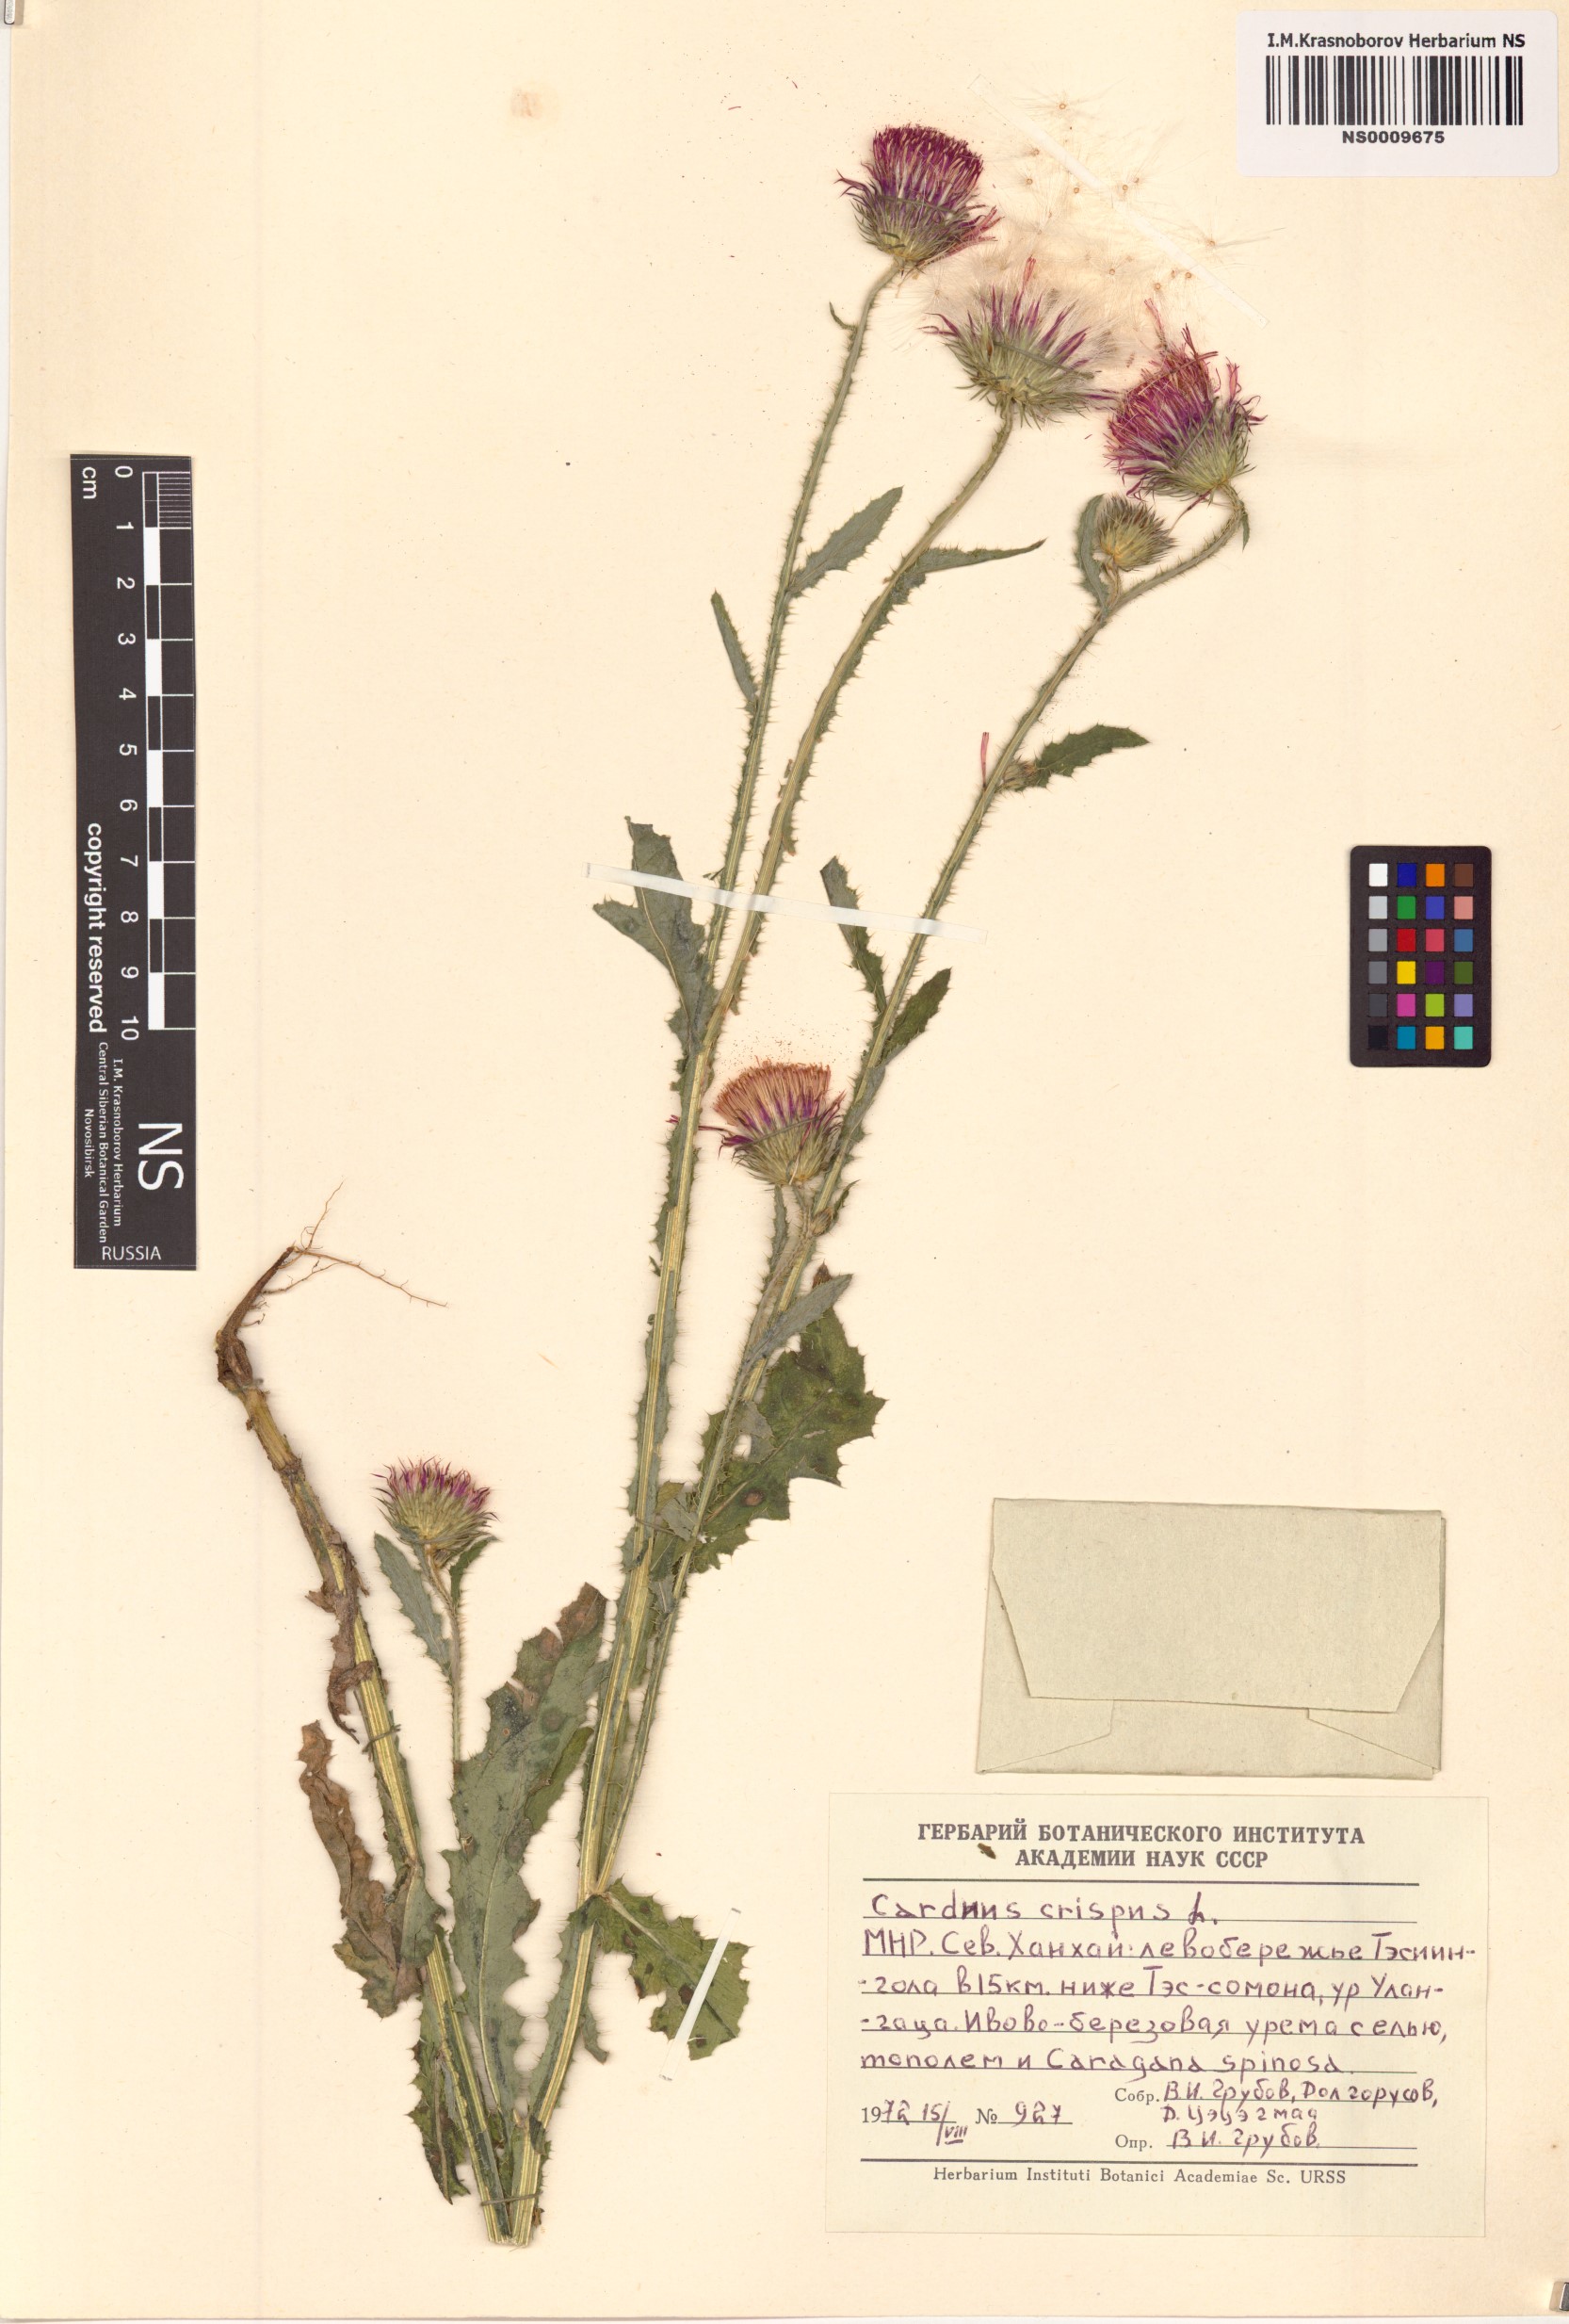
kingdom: Plantae
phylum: Tracheophyta
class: Magnoliopsida
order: Asterales
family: Asteraceae
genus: Carduus
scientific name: Carduus crispus
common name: Welted thistle
